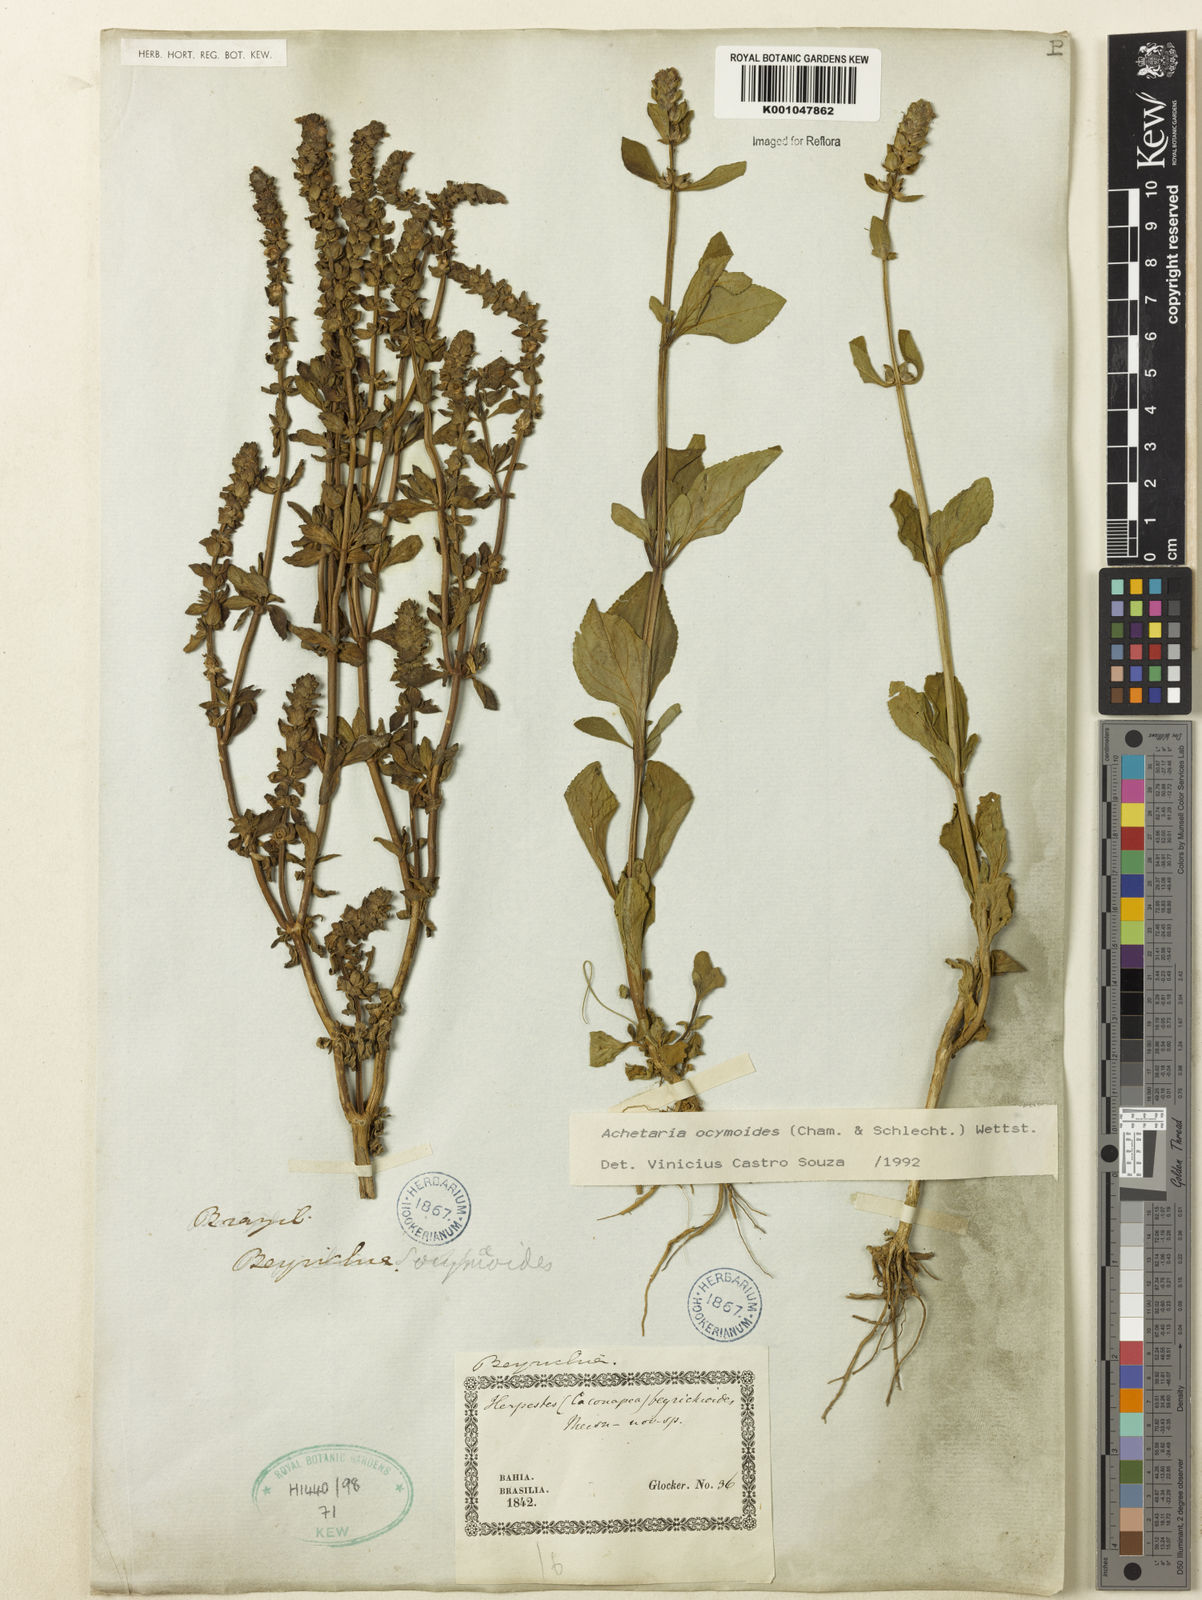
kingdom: Plantae
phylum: Tracheophyta
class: Magnoliopsida
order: Lamiales
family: Plantaginaceae
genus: Matourea
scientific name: Matourea ocymoides
